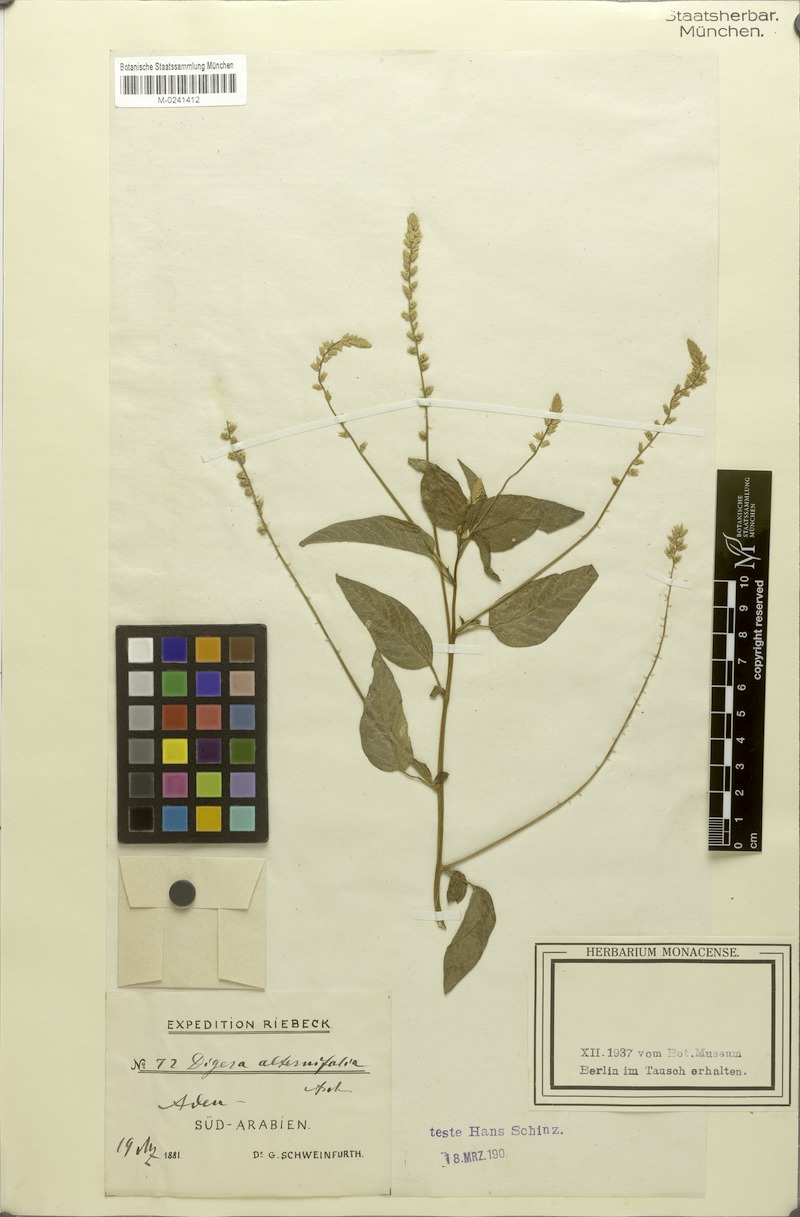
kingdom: Plantae
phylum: Tracheophyta
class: Magnoliopsida
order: Caryophyllales
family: Amaranthaceae
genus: Digera
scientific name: Digera muricata
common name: False amaranth
